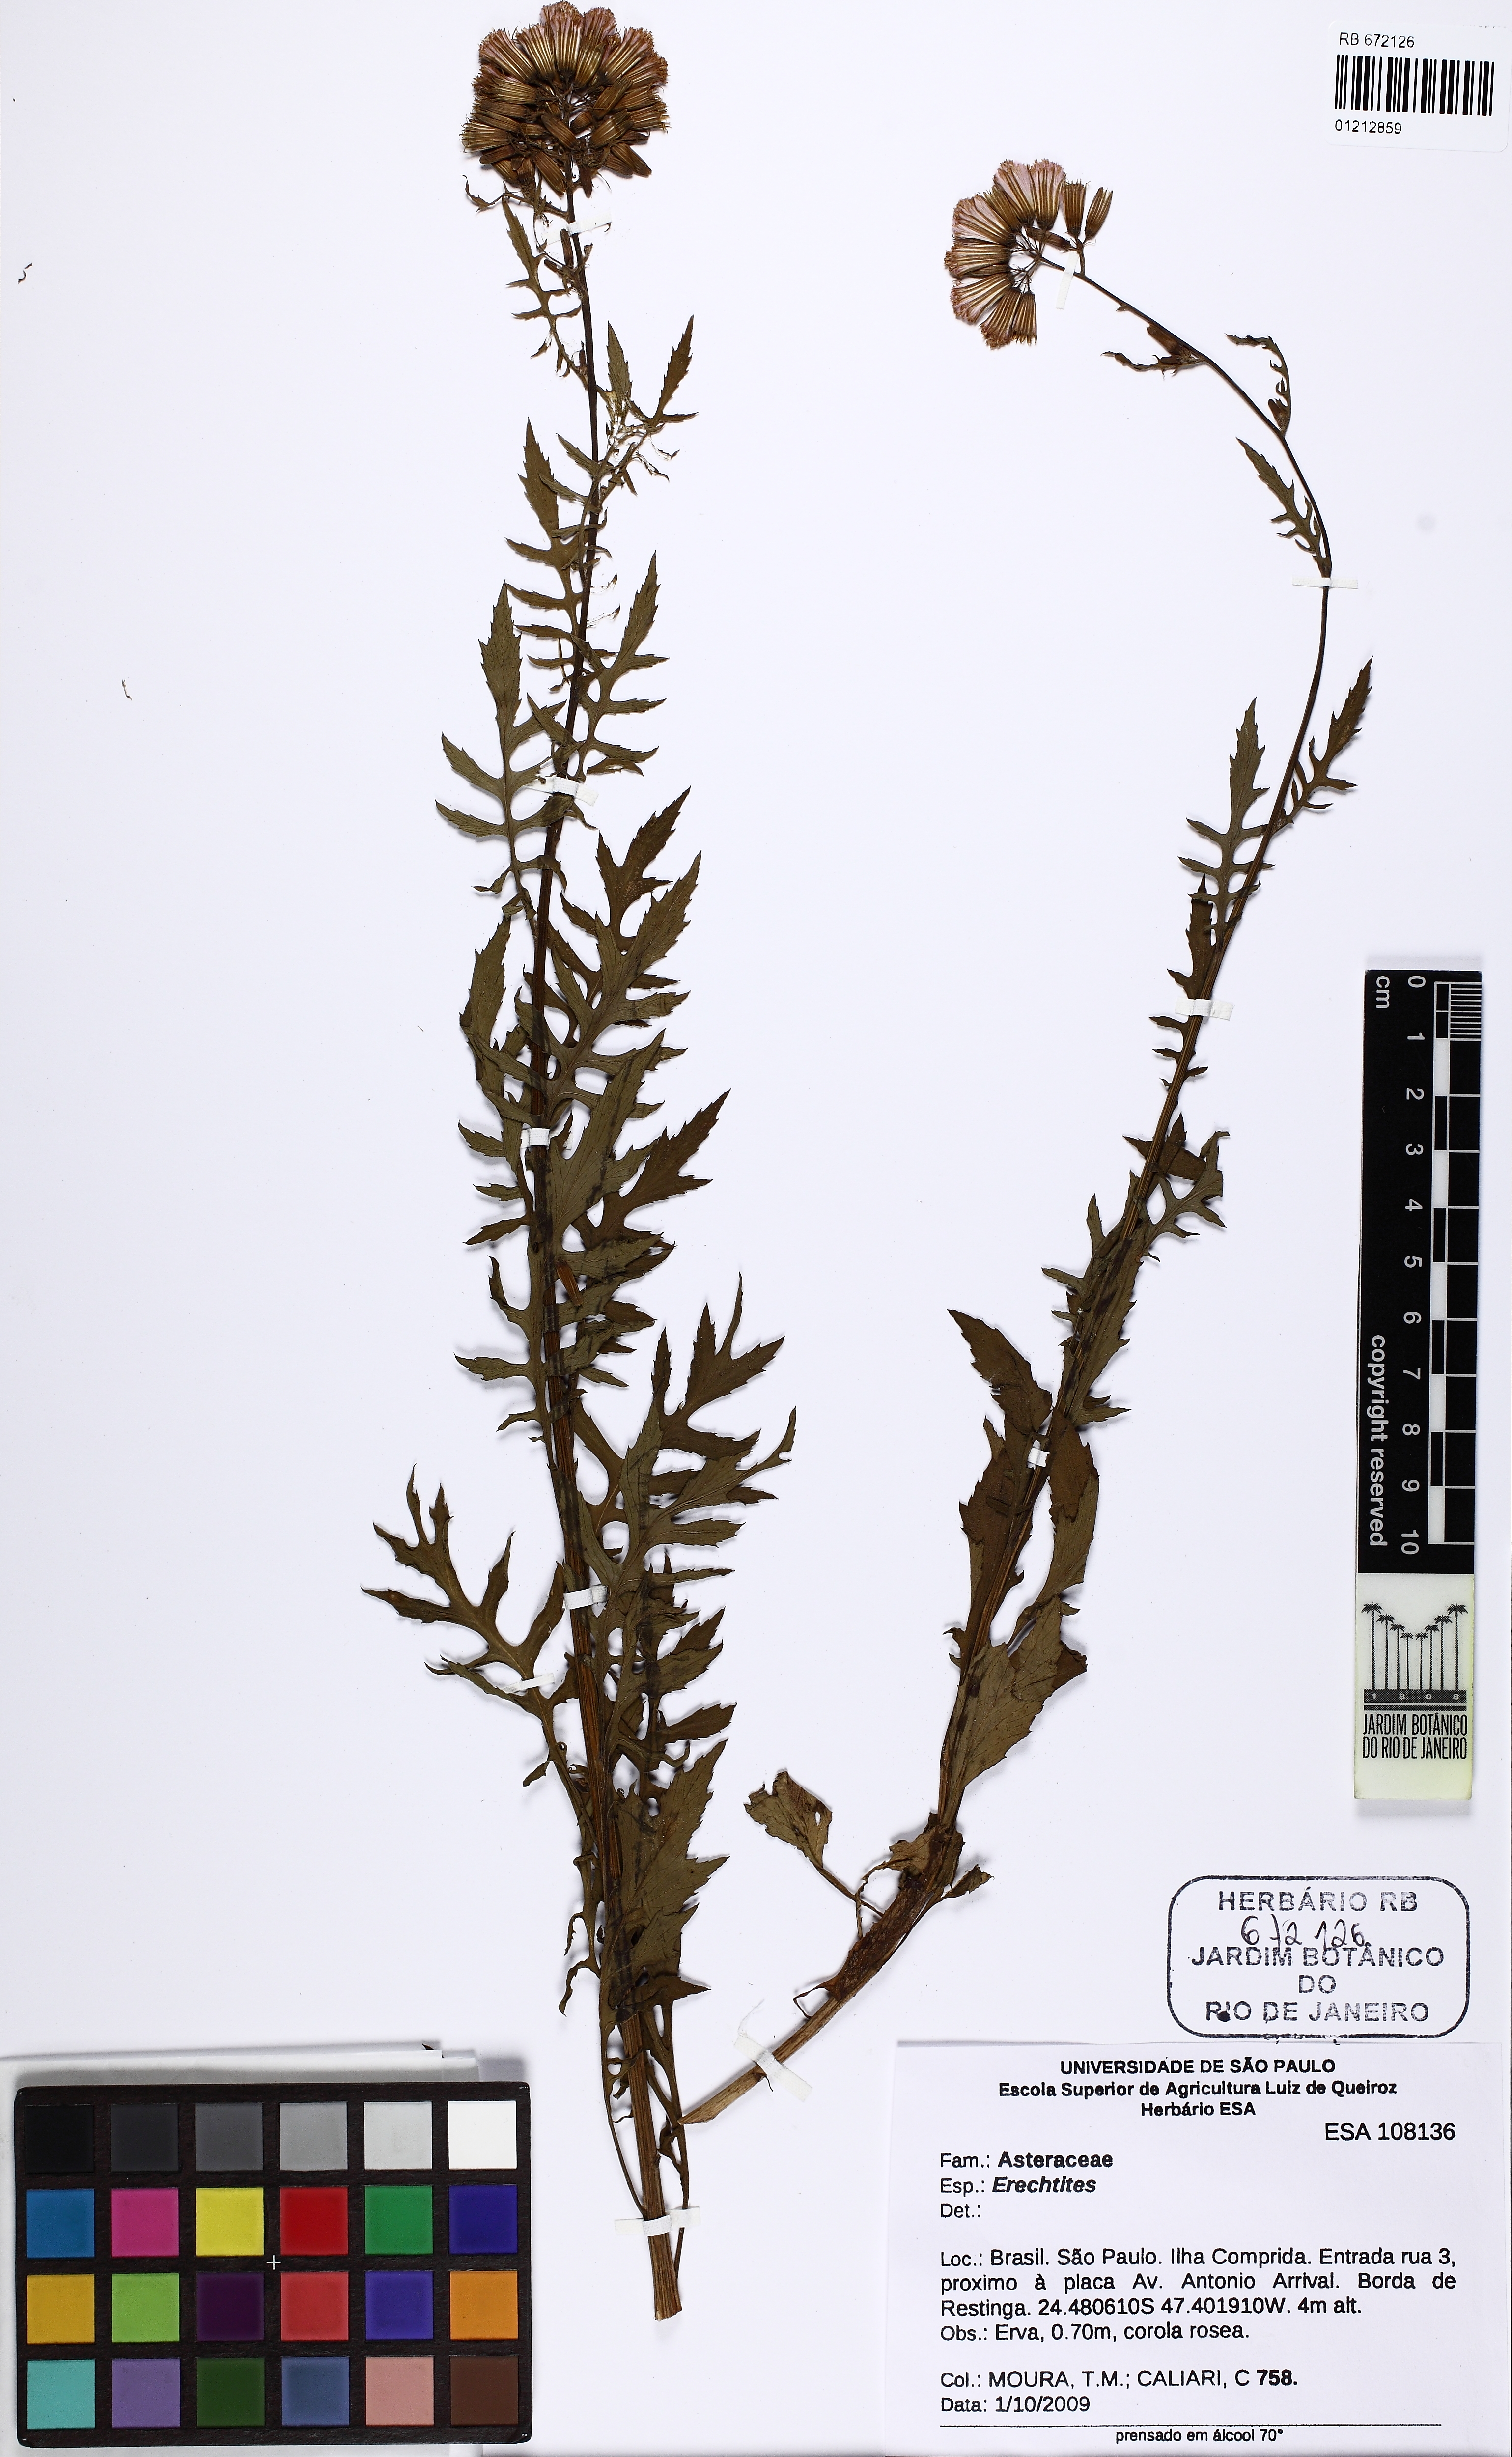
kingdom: Plantae
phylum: Tracheophyta
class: Magnoliopsida
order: Asterales
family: Asteraceae
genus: Erechtites
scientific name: Erechtites
